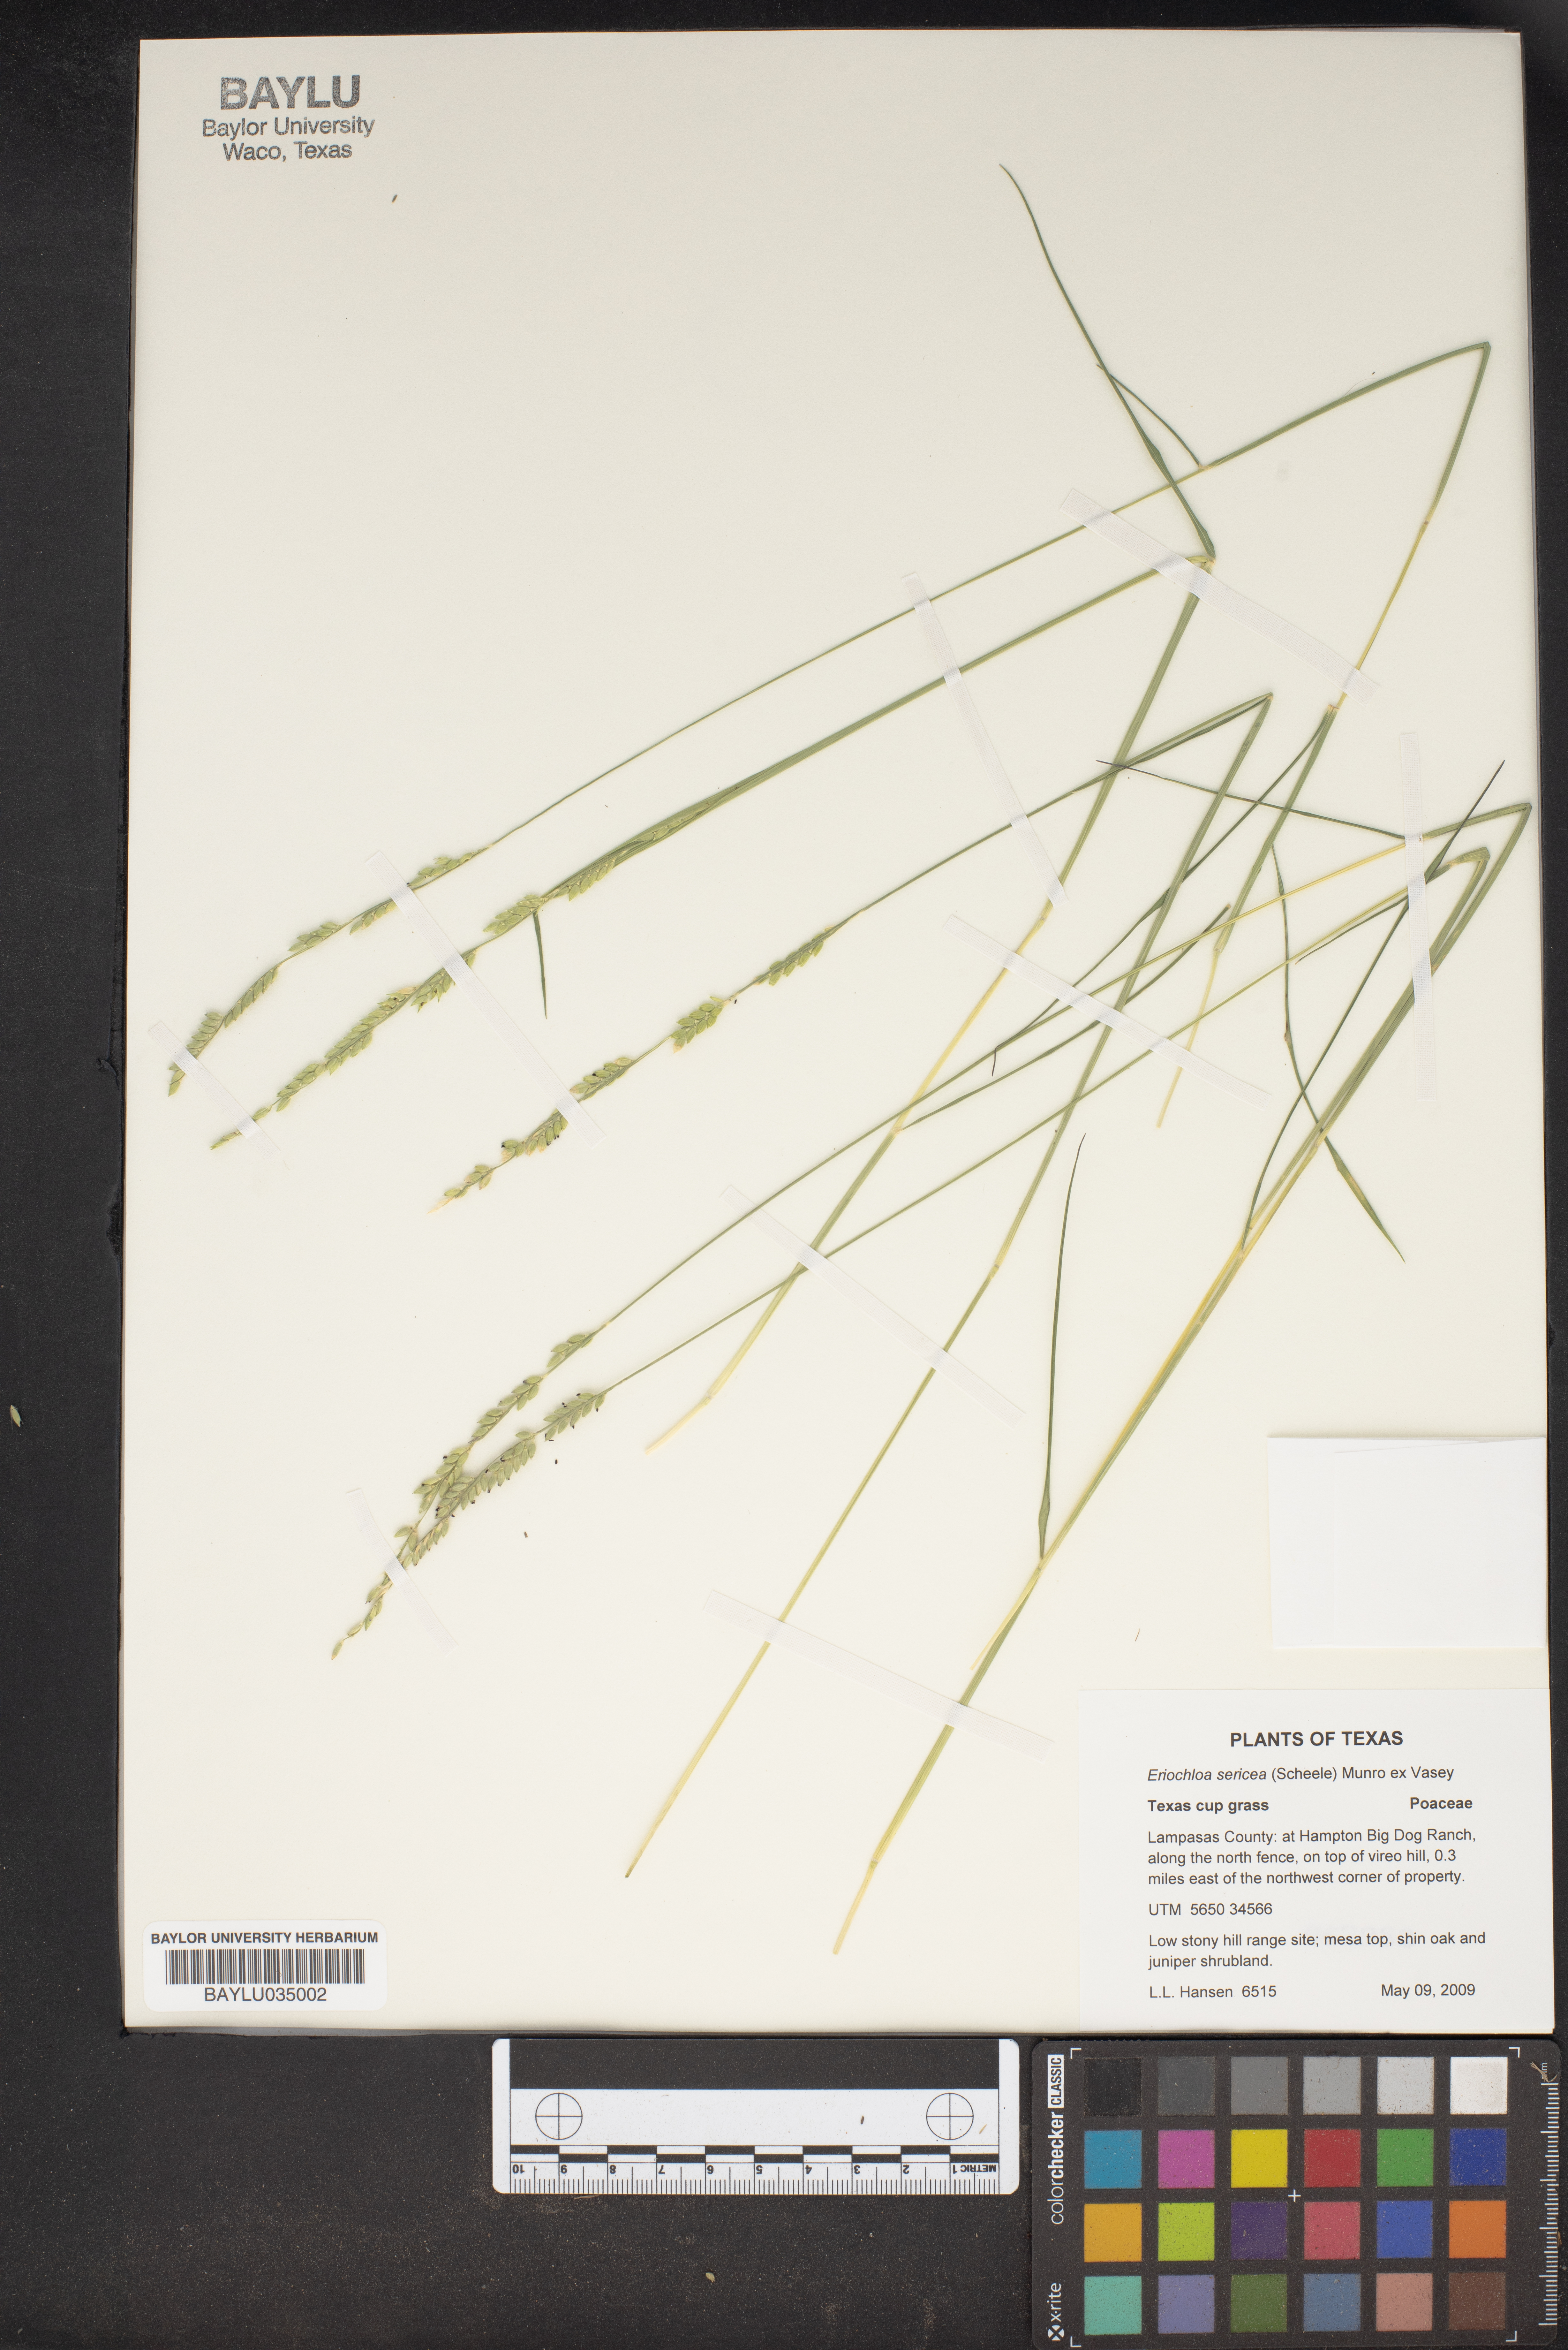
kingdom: Plantae
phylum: Tracheophyta
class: Liliopsida
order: Poales
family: Poaceae
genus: Eriochloa
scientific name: Eriochloa sericea
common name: Texas cup grass
